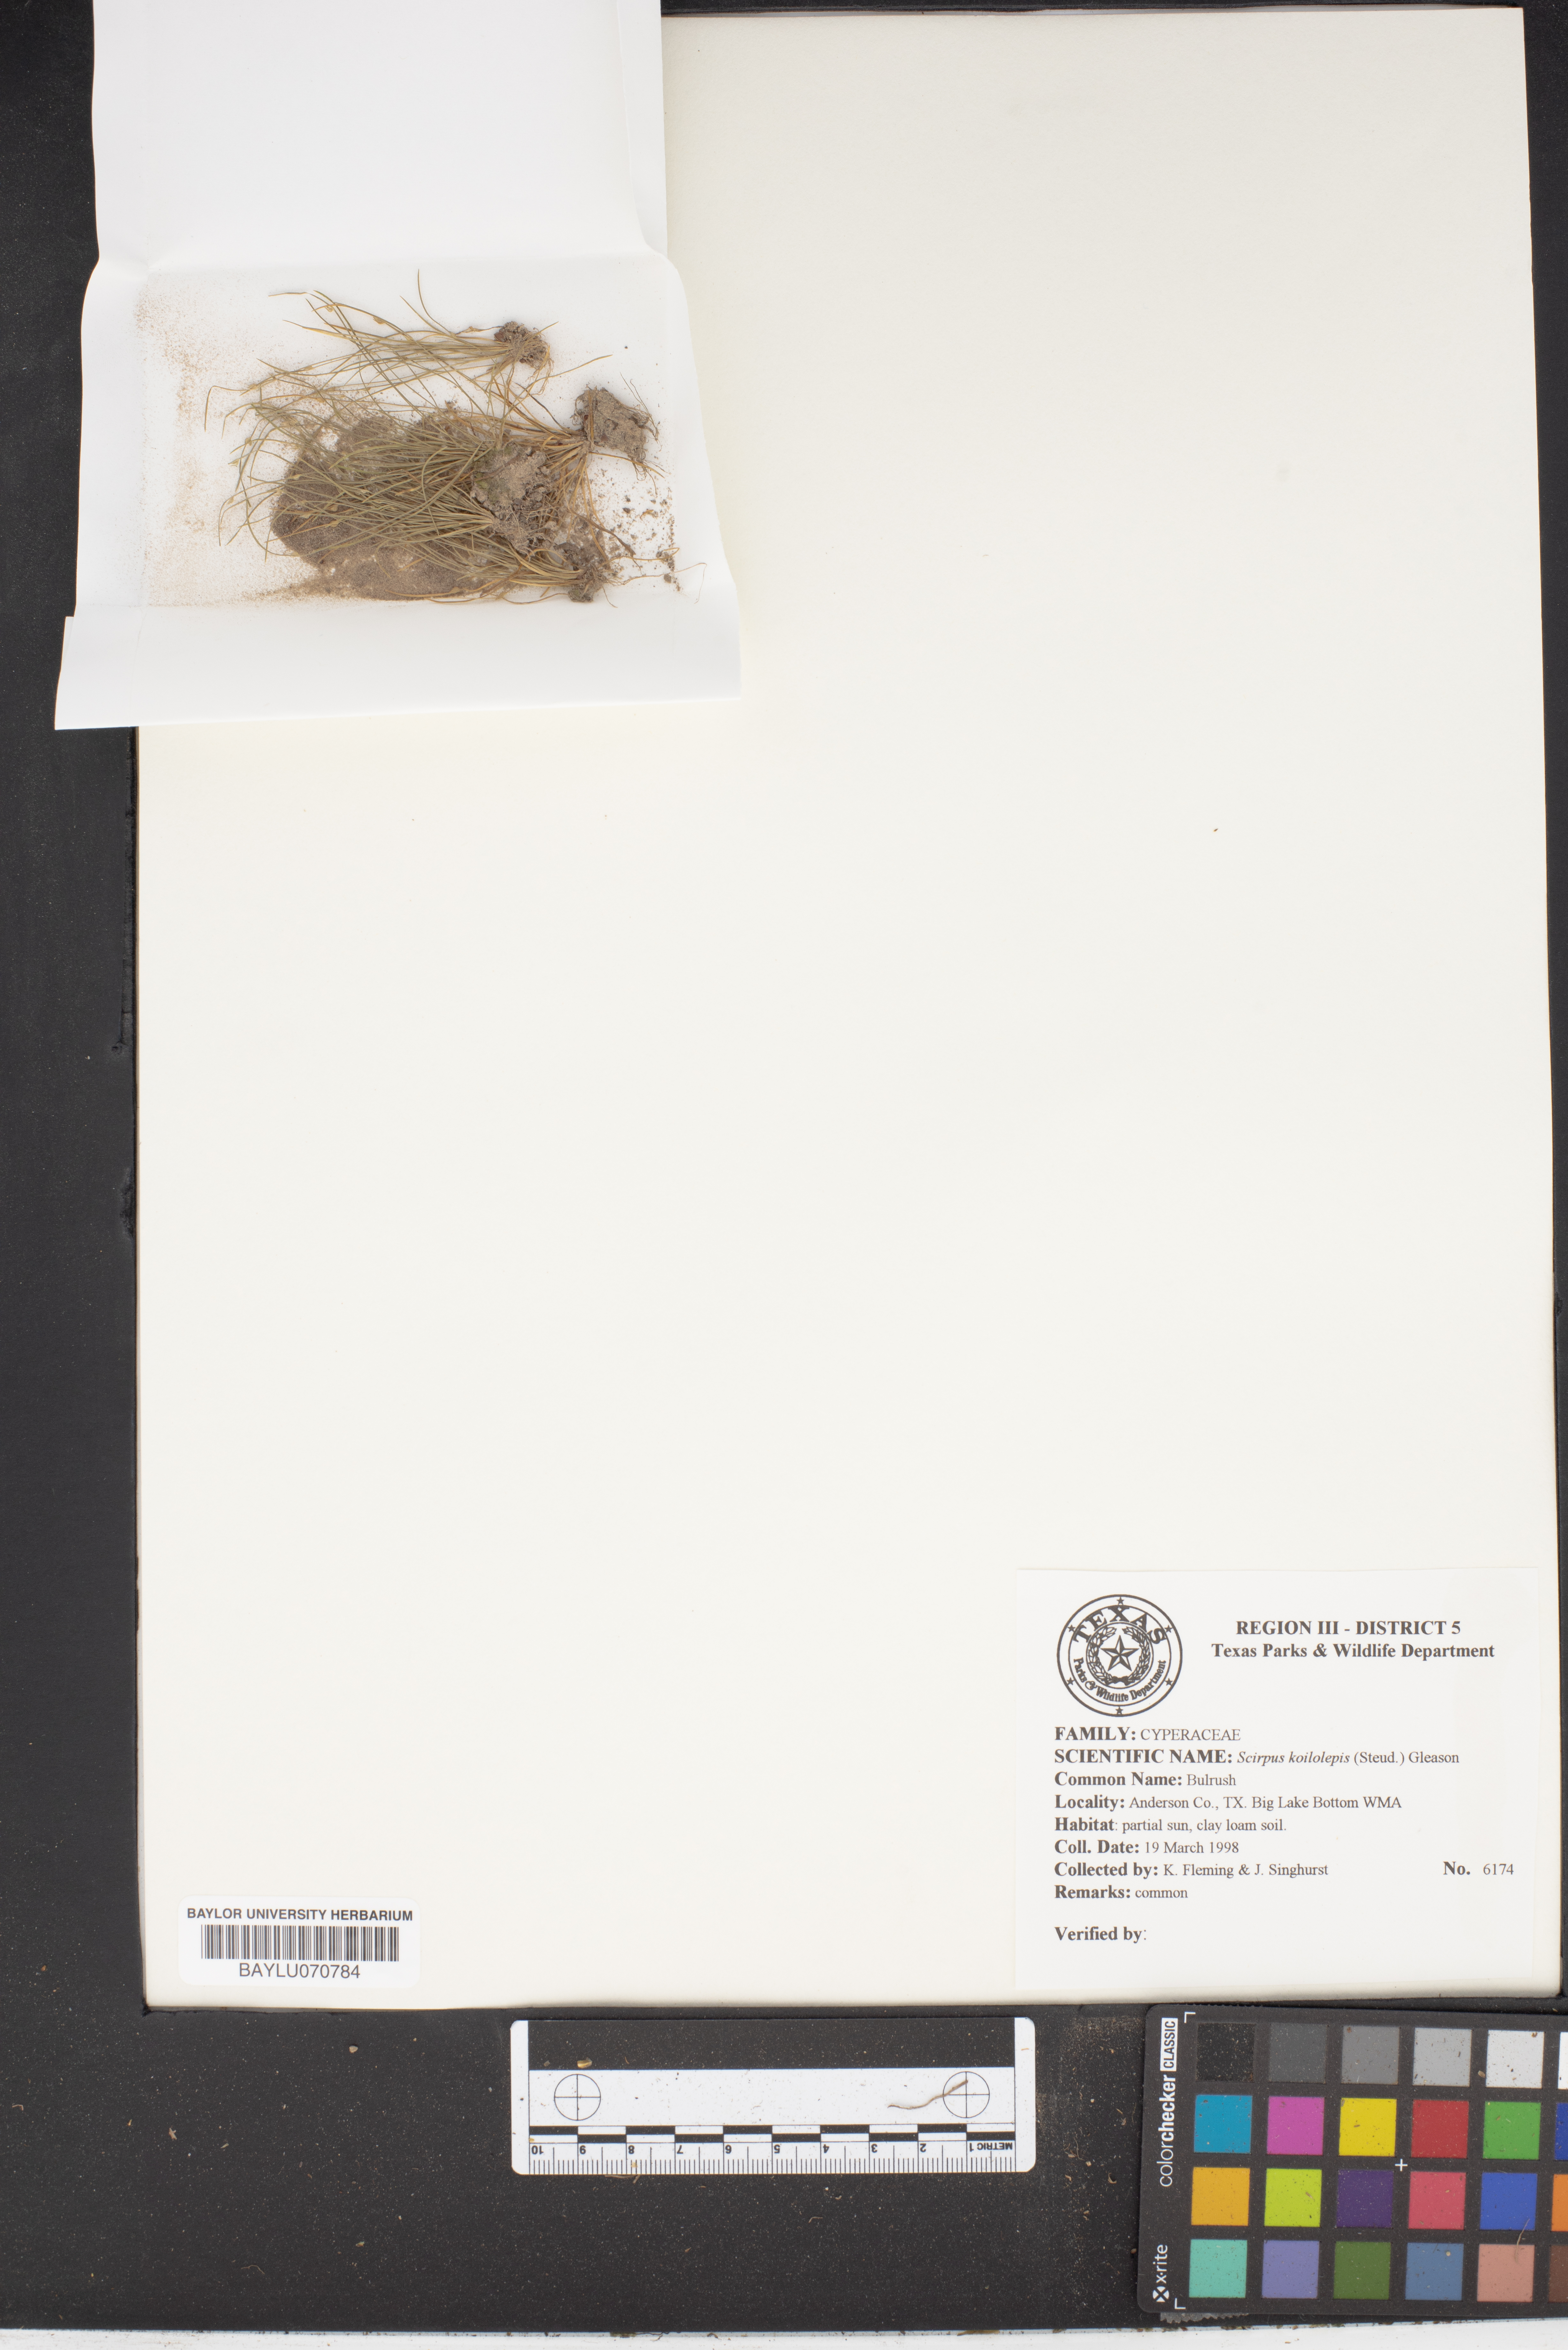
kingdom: Plantae
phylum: Tracheophyta
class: Liliopsida
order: Poales
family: Cyperaceae
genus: Isolepis
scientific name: Isolepis carinata
